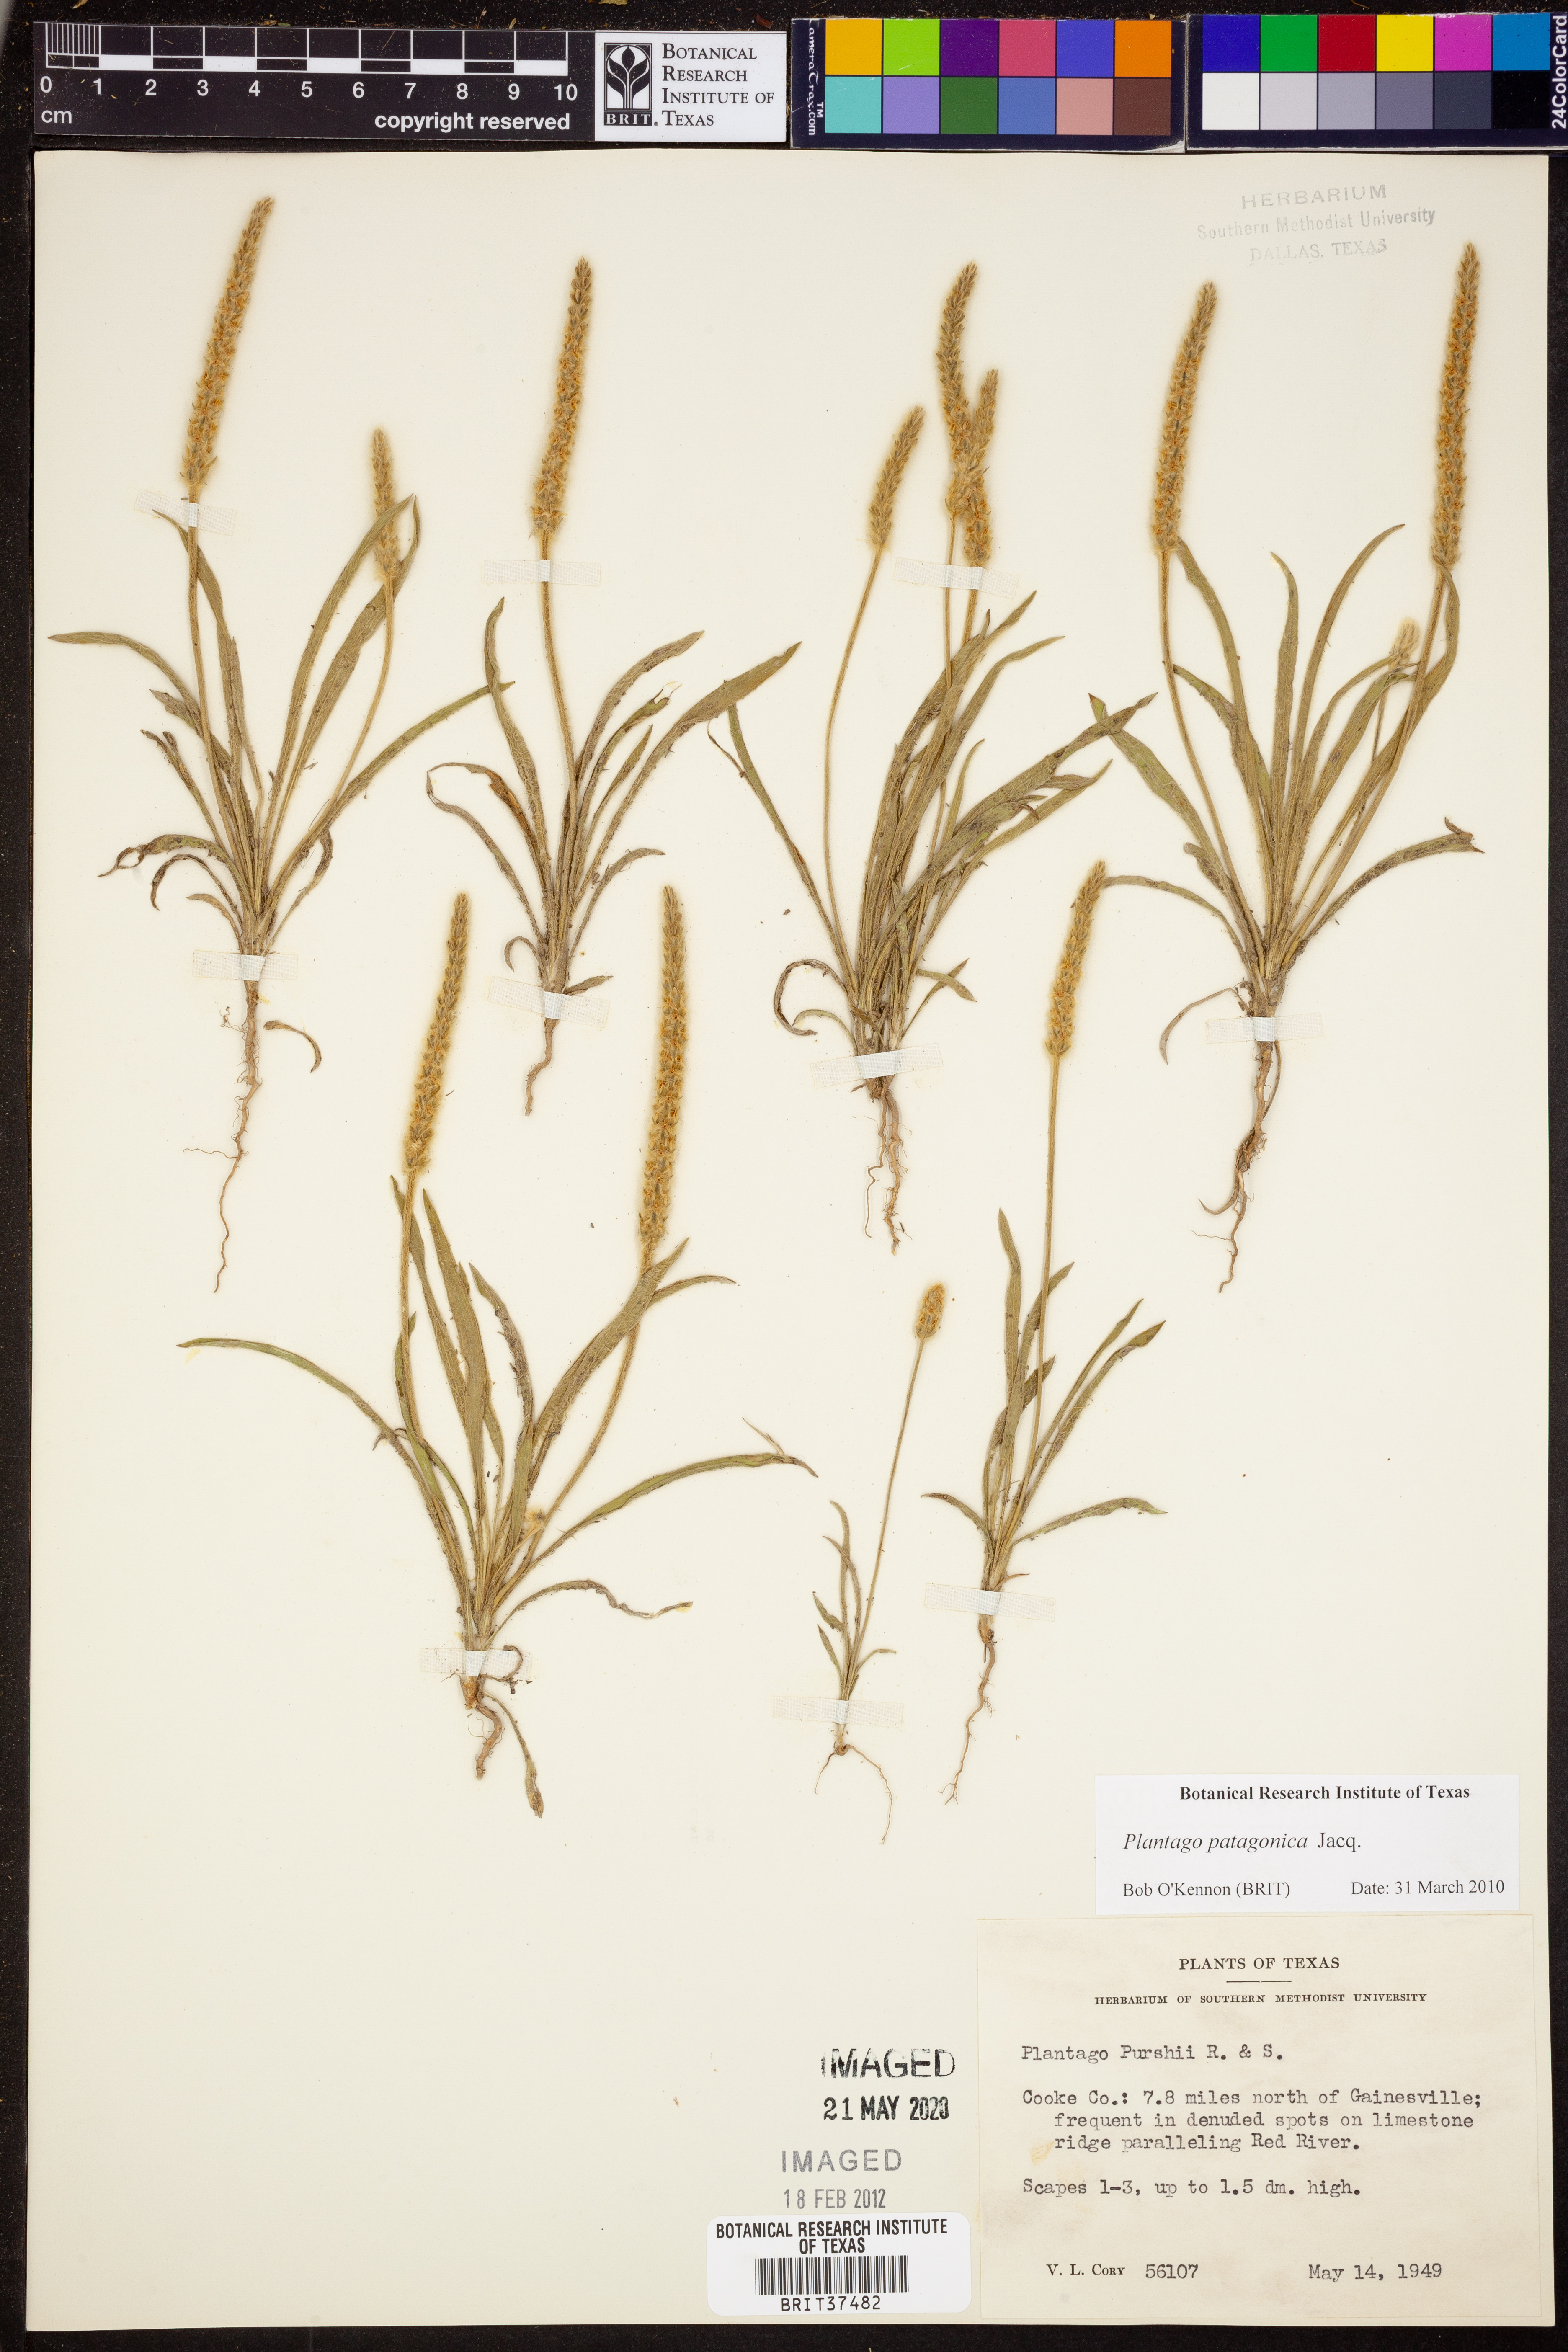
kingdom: Plantae
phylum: Tracheophyta
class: Magnoliopsida
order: Lamiales
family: Plantaginaceae
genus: Plantago
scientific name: Plantago patagonica
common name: Patagonia indian-wheat
